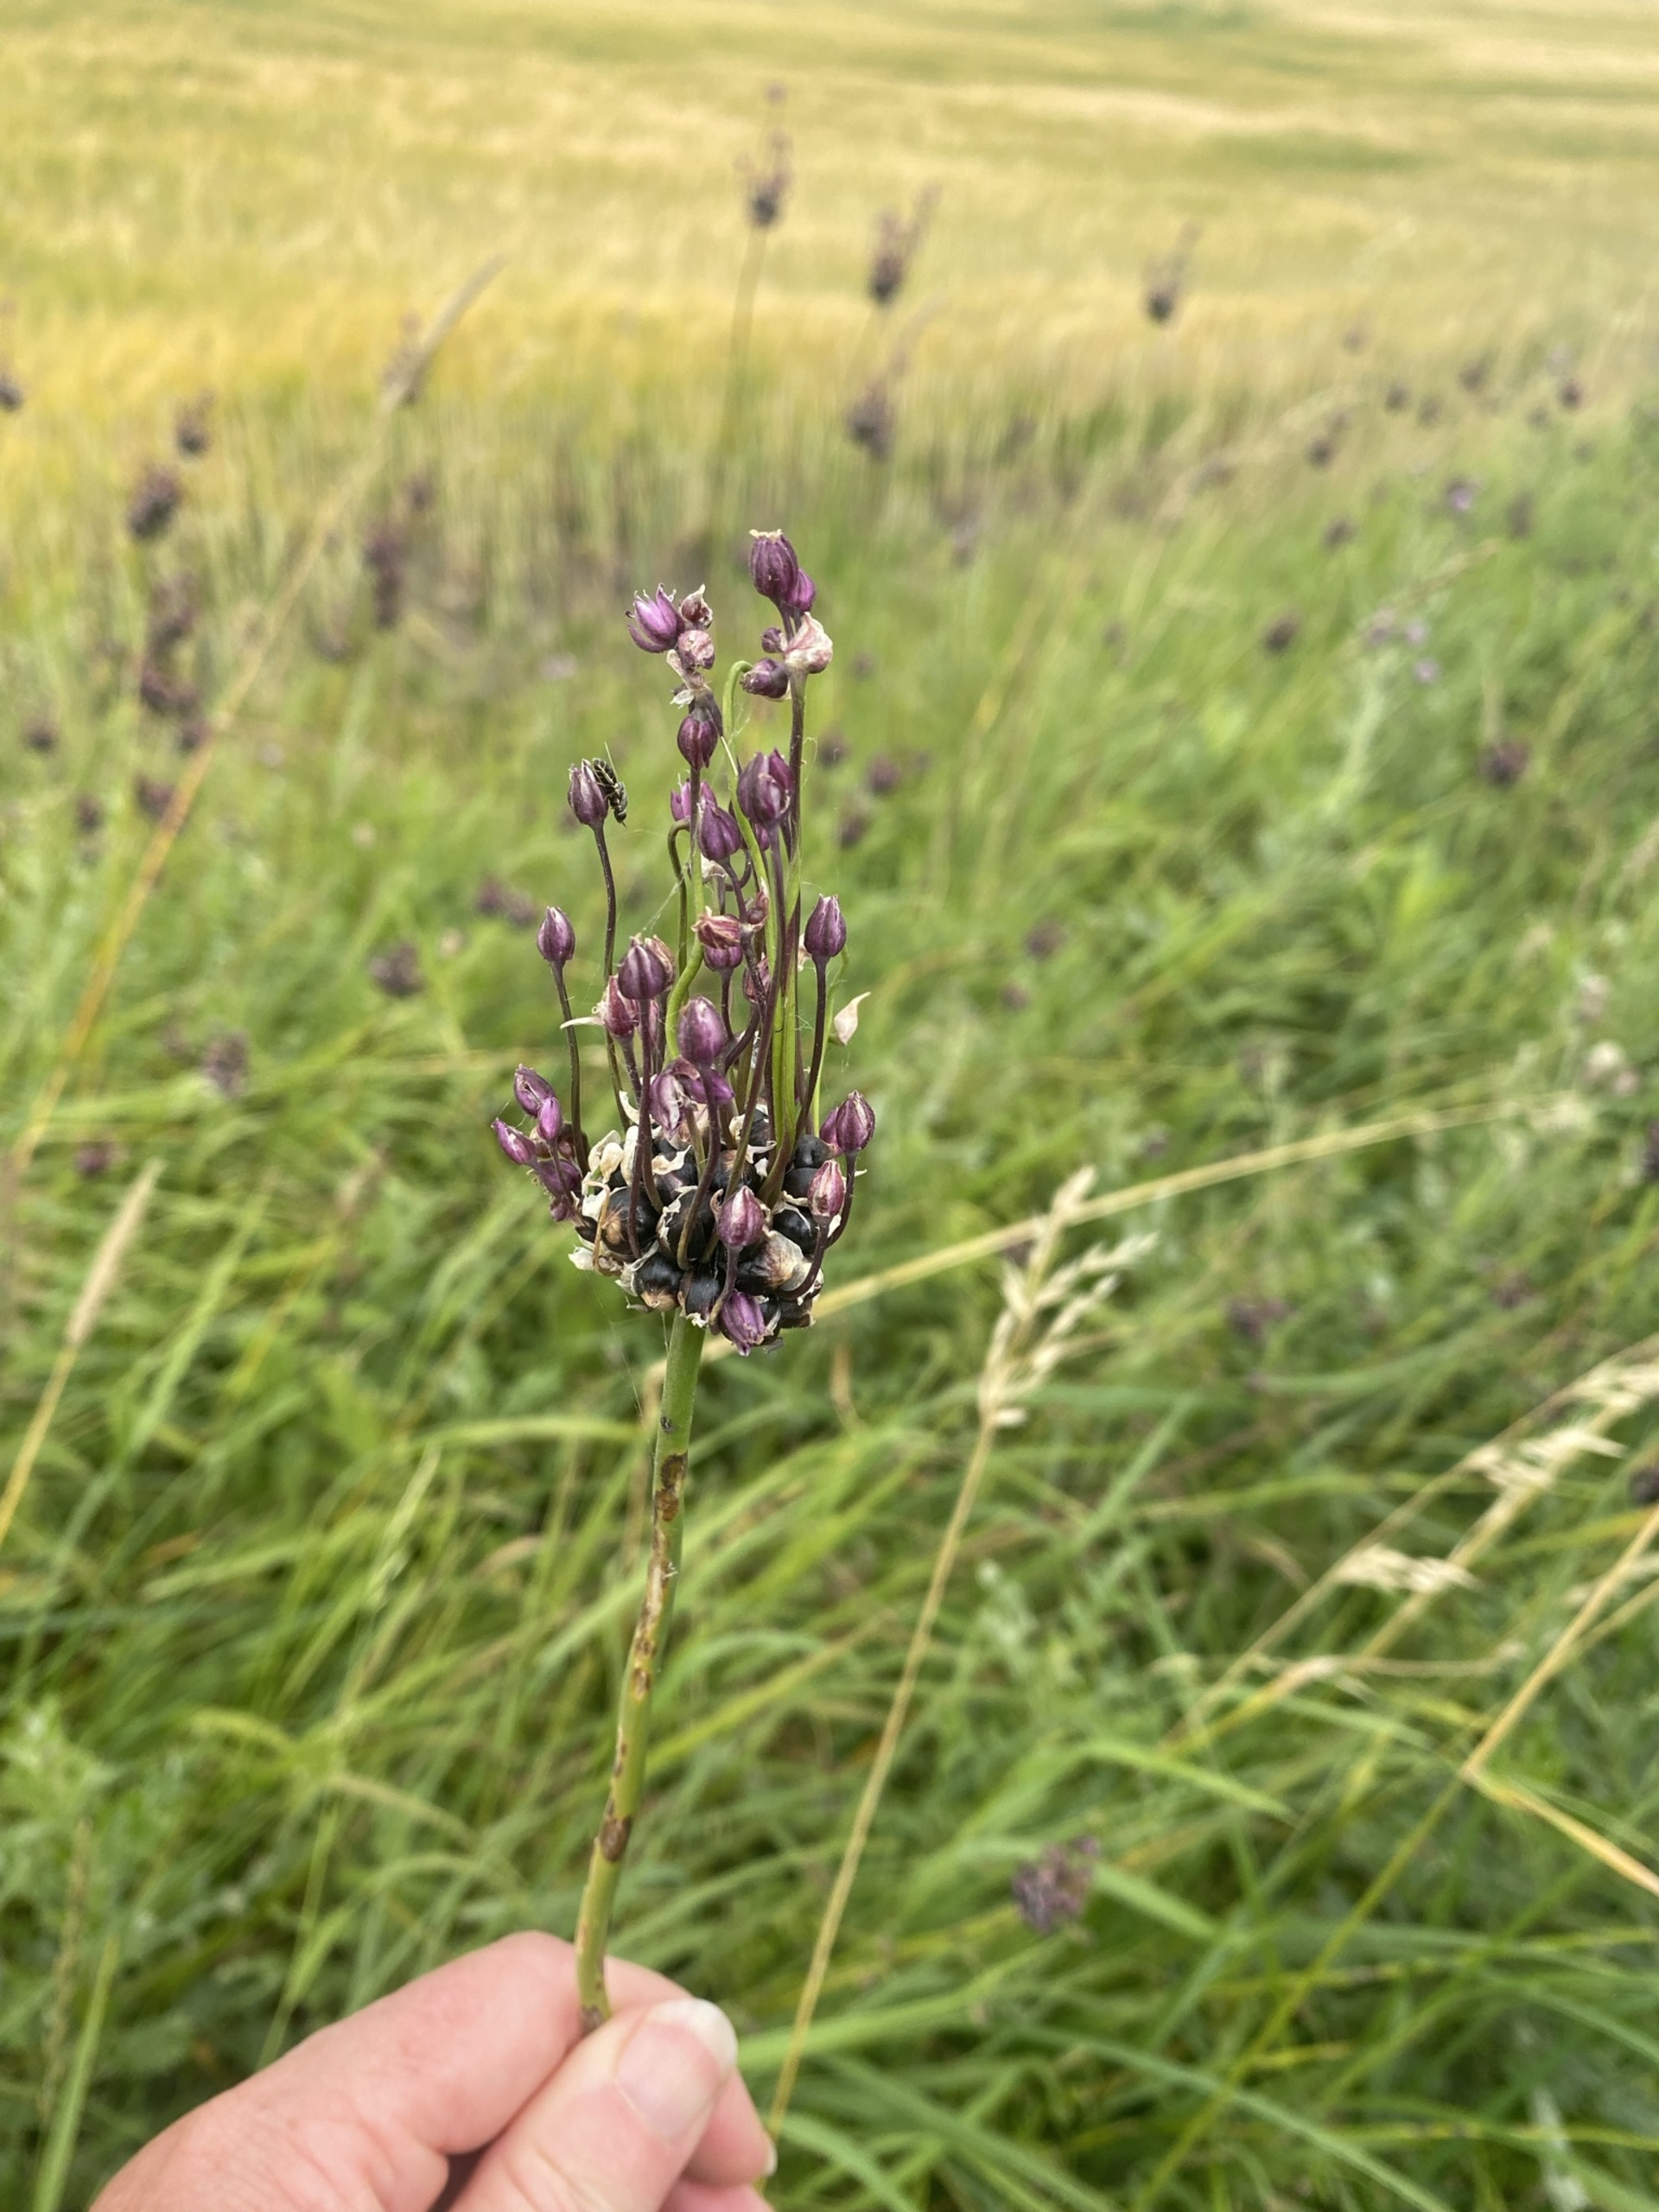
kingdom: Plantae
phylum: Tracheophyta
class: Liliopsida
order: Asparagales
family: Amaryllidaceae
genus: Allium
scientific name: Allium scorodoprasum
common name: Skov-løg
